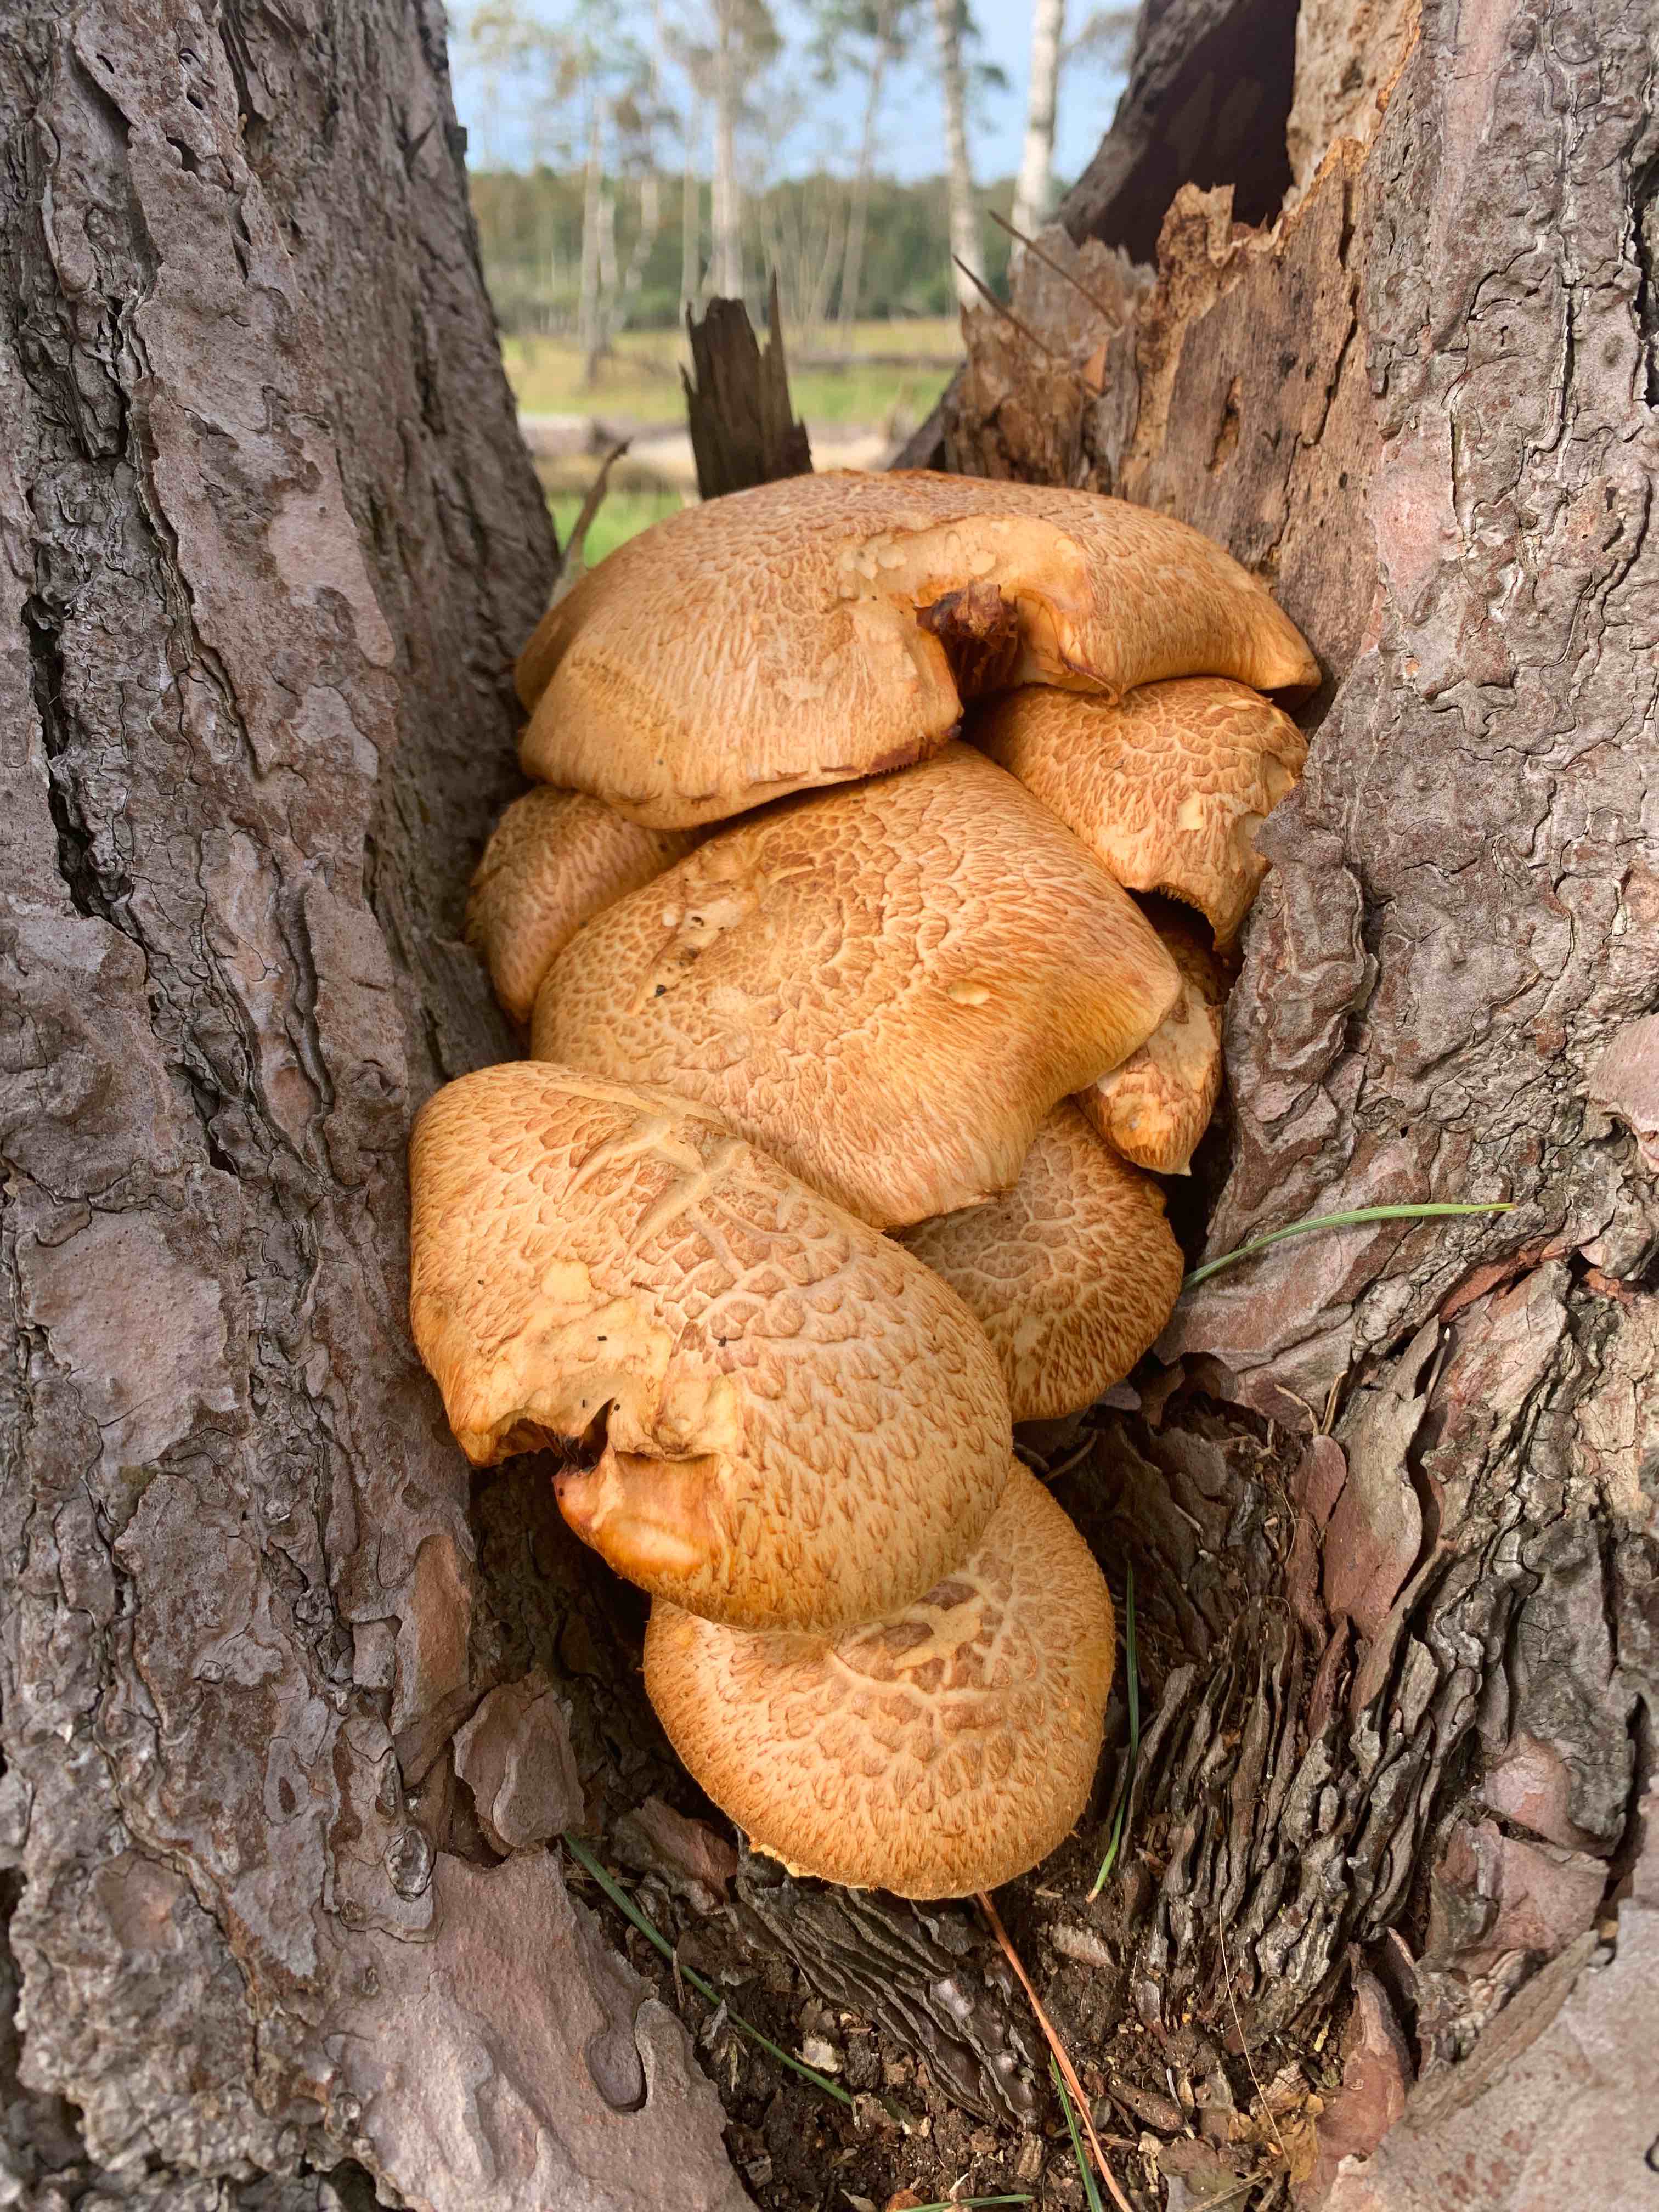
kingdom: Fungi
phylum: Basidiomycota
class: Agaricomycetes
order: Agaricales
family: Hymenogastraceae
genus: Gymnopilus
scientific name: Gymnopilus spectabilis
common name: fibret flammehat
